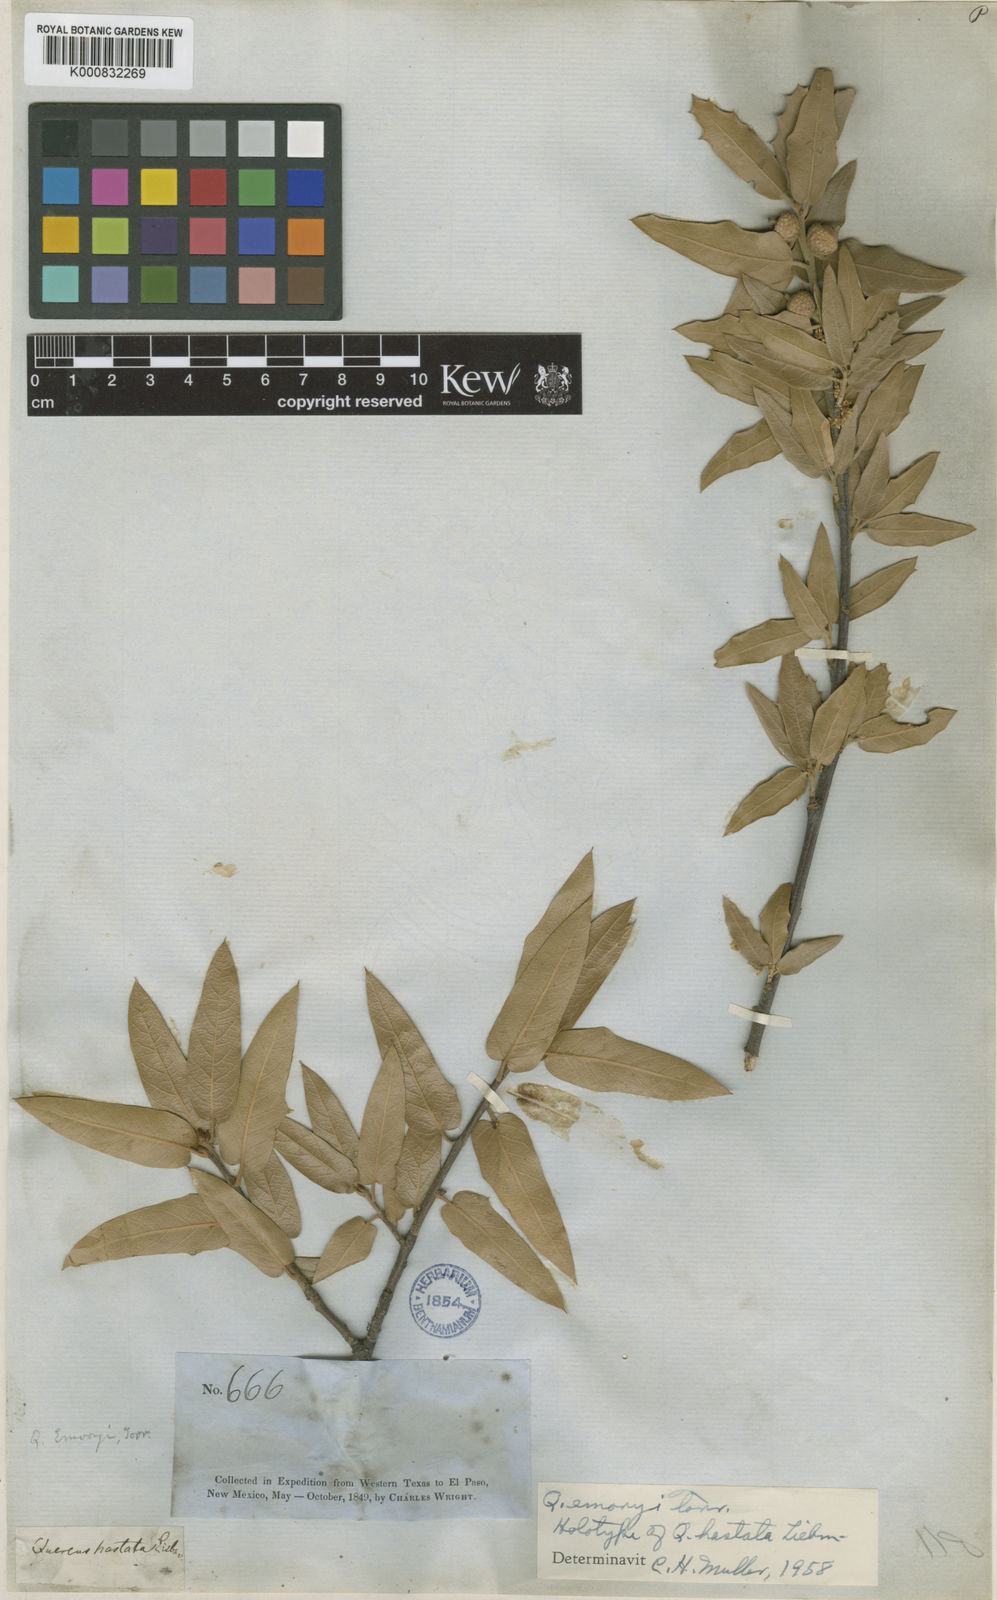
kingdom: Plantae
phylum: Tracheophyta
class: Magnoliopsida
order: Fagales
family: Fagaceae
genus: Quercus
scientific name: Quercus emoryi
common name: Emory oak
